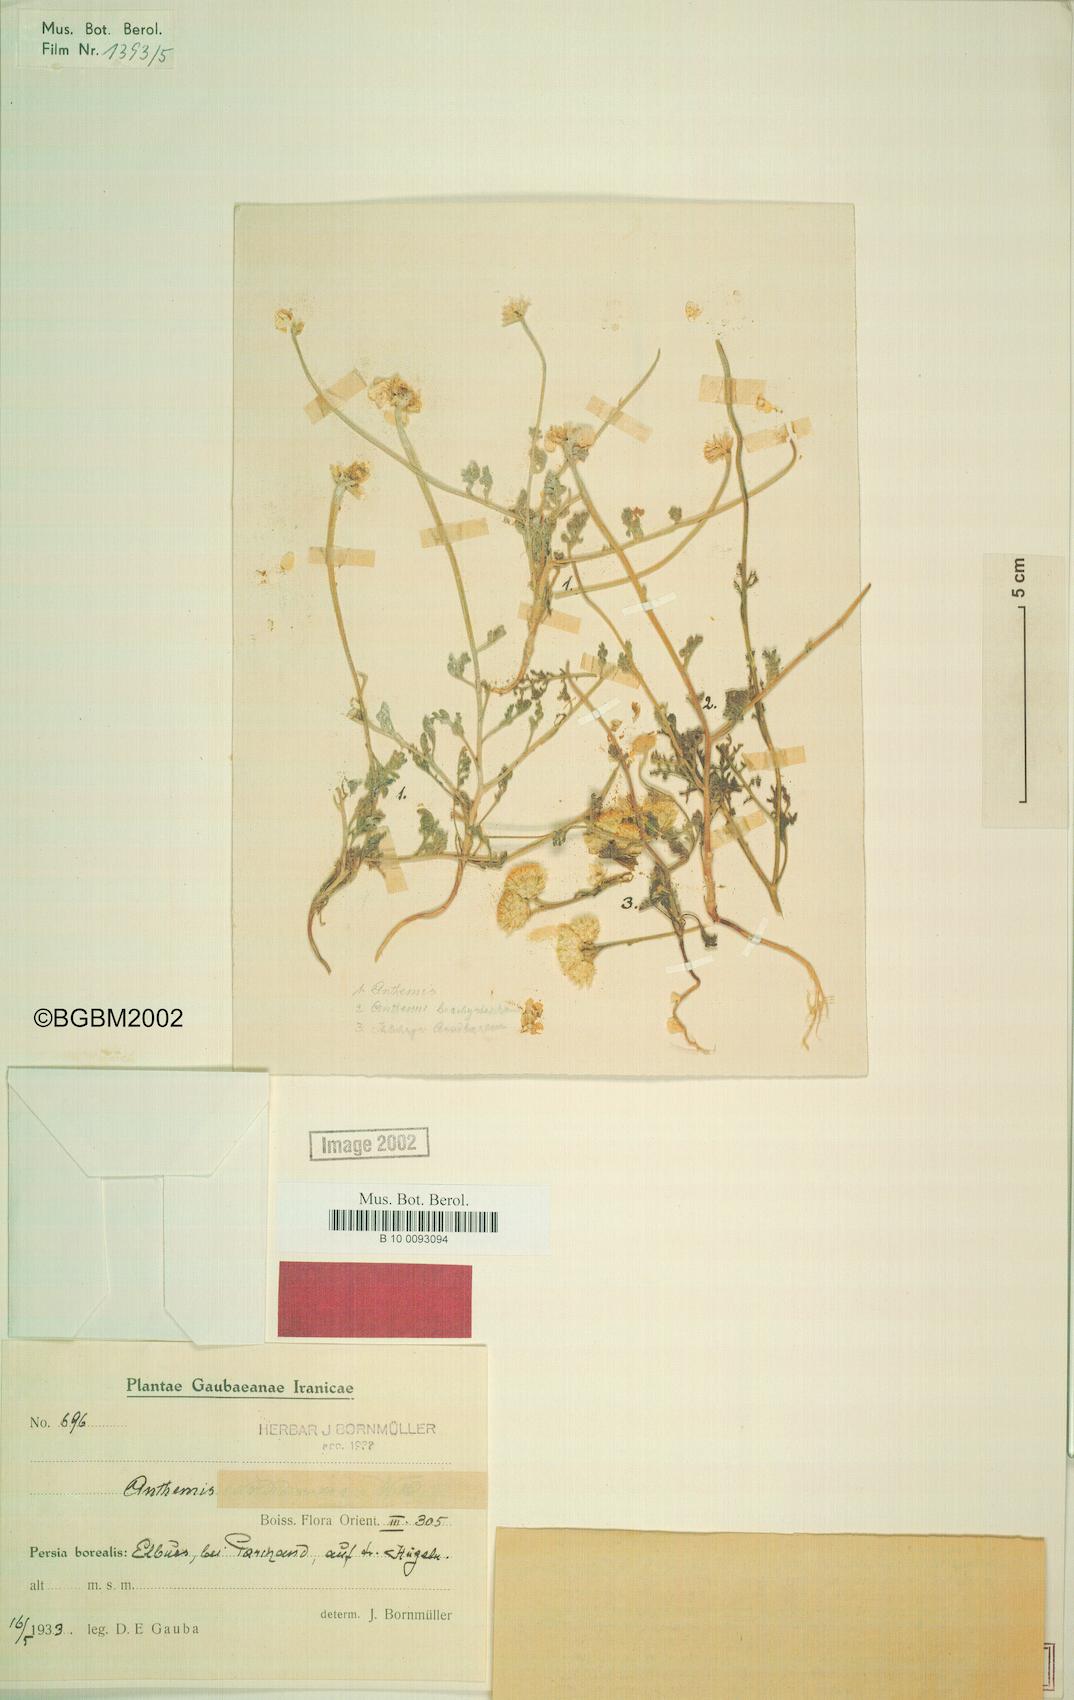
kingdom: Plantae
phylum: Tracheophyta
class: Magnoliopsida
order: Asterales
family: Asteraceae
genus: Anthemis
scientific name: Anthemis gilanica
